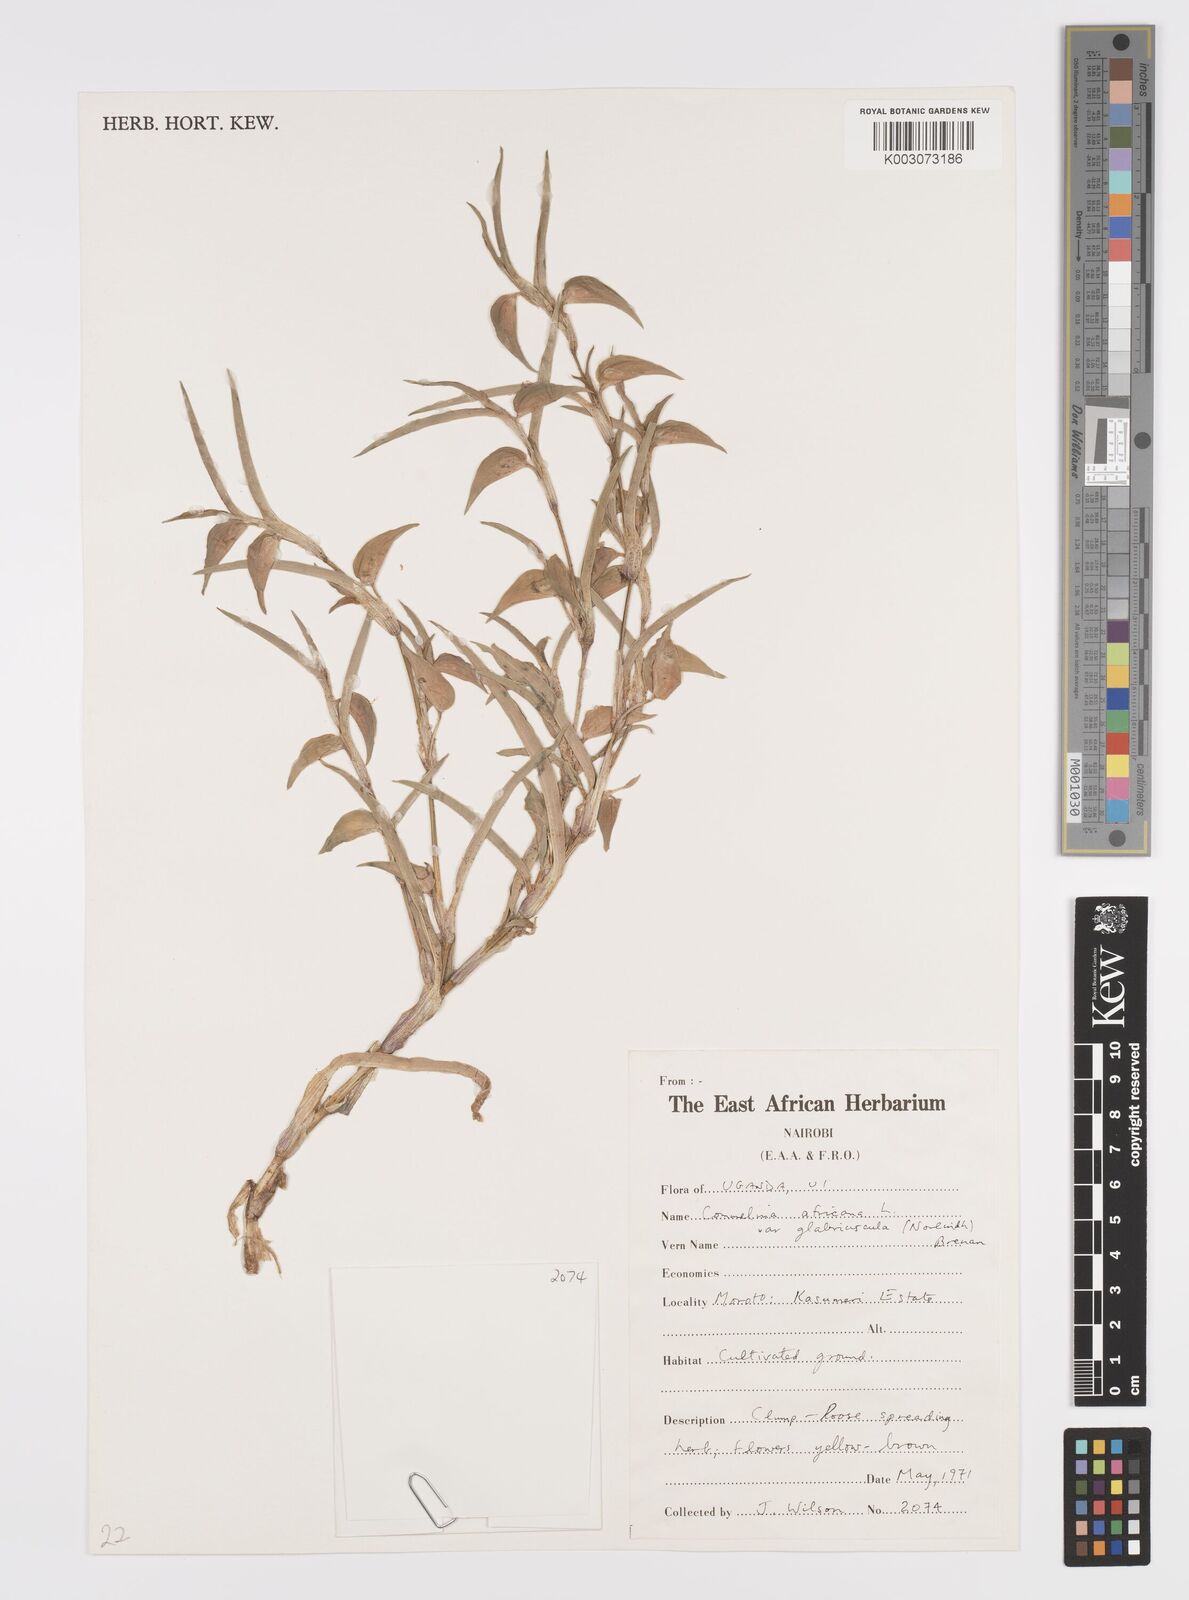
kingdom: Plantae
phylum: Tracheophyta
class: Liliopsida
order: Commelinales
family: Commelinaceae
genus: Commelina
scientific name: Commelina africana
